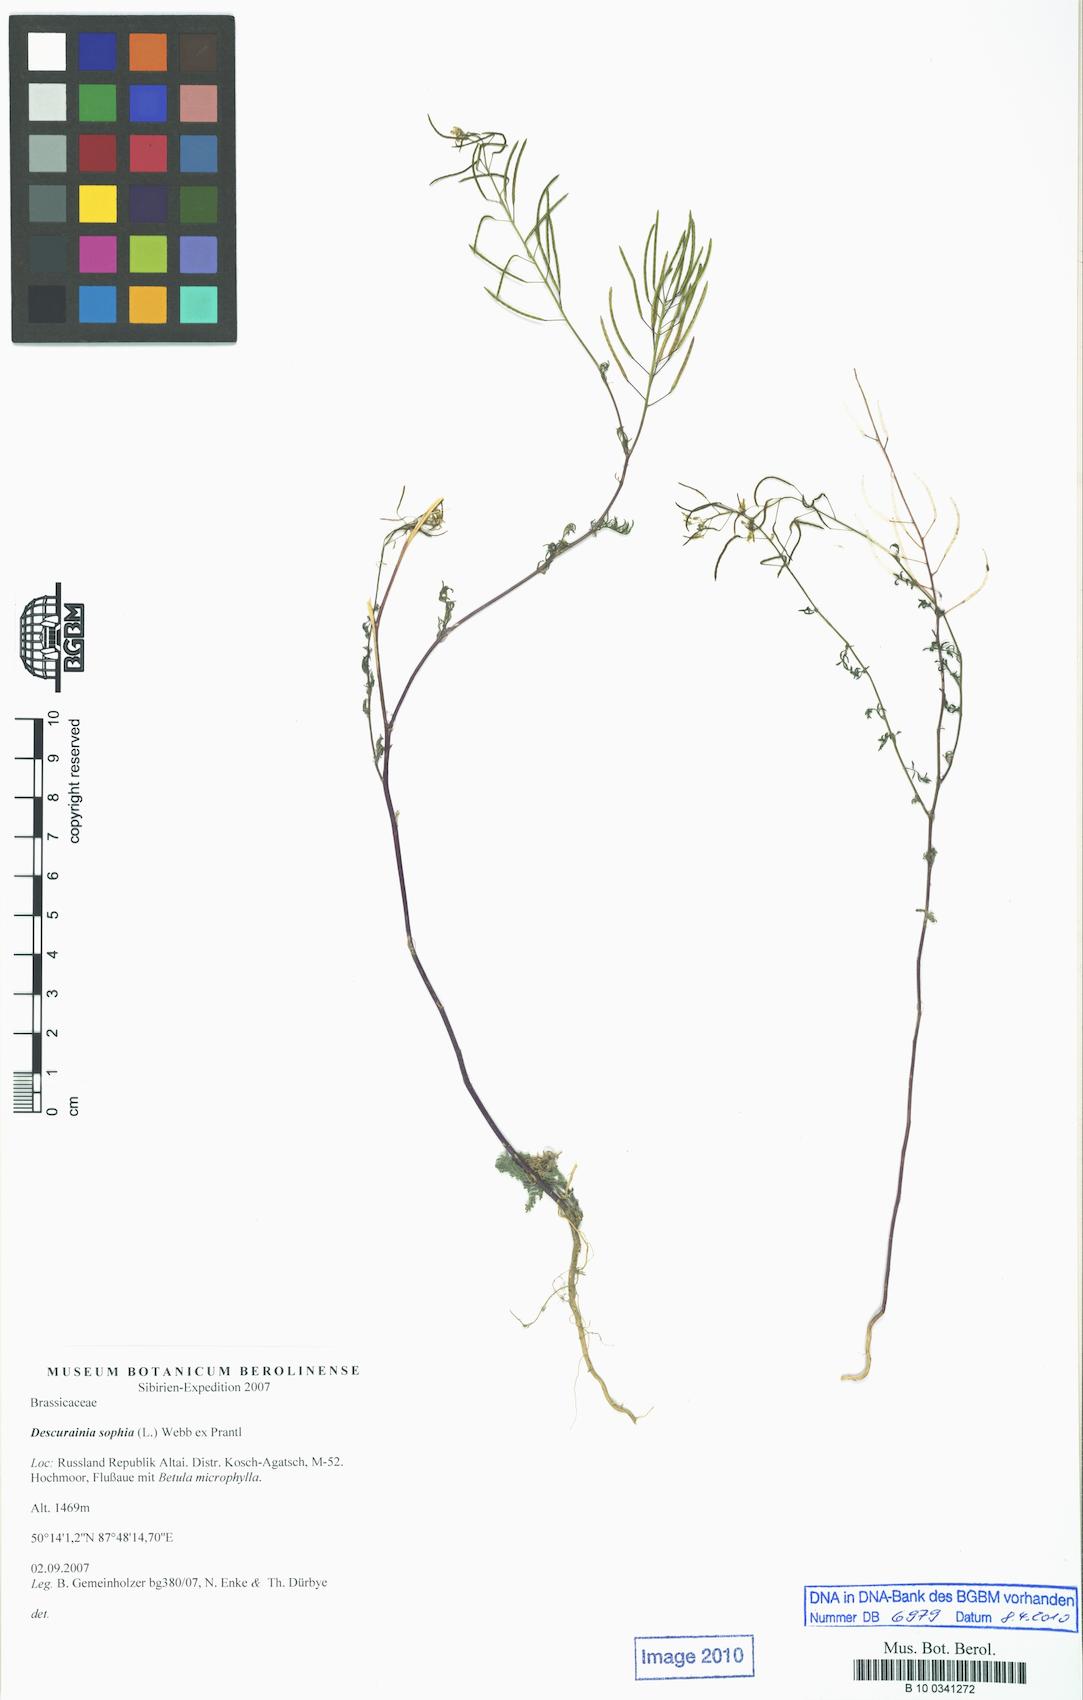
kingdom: Plantae
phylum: Tracheophyta
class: Magnoliopsida
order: Brassicales
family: Brassicaceae
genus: Descurainia
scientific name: Descurainia sophia
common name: Flixweed
